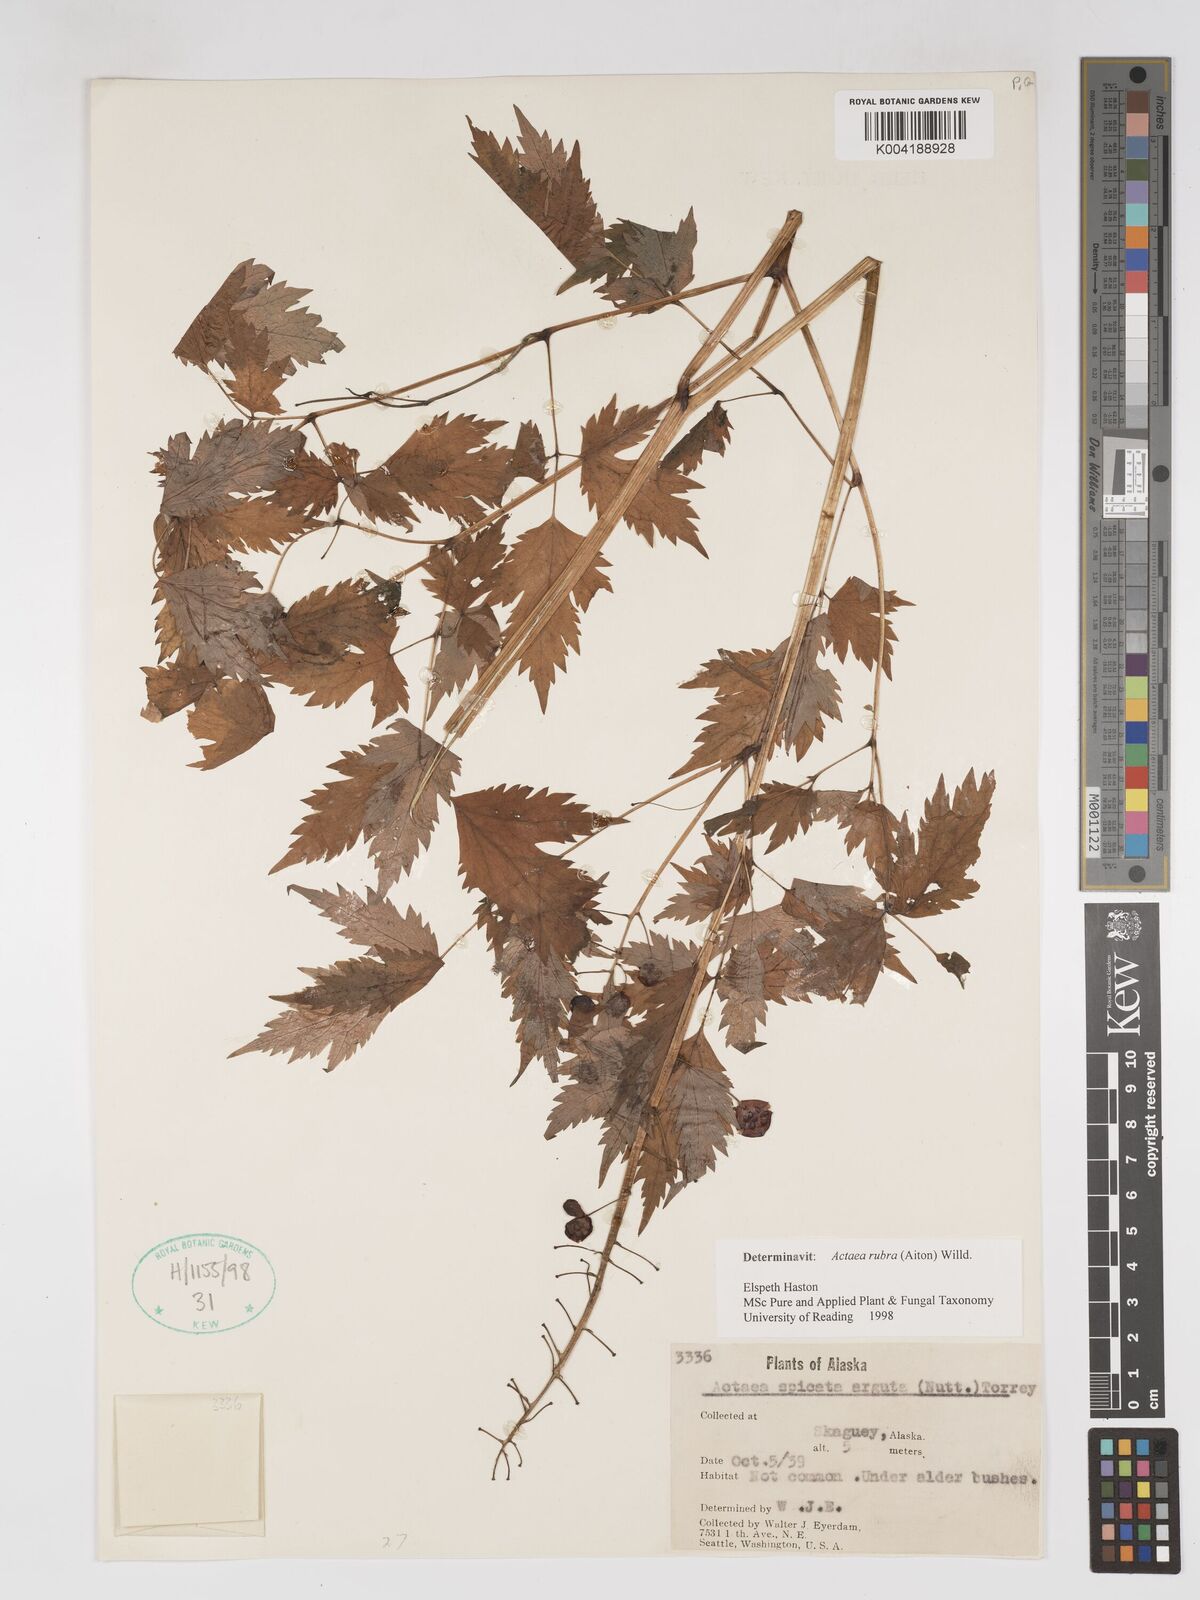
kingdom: Plantae
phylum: Tracheophyta
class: Magnoliopsida
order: Ranunculales
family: Ranunculaceae
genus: Actaea
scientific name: Actaea rubra
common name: Red baneberry
